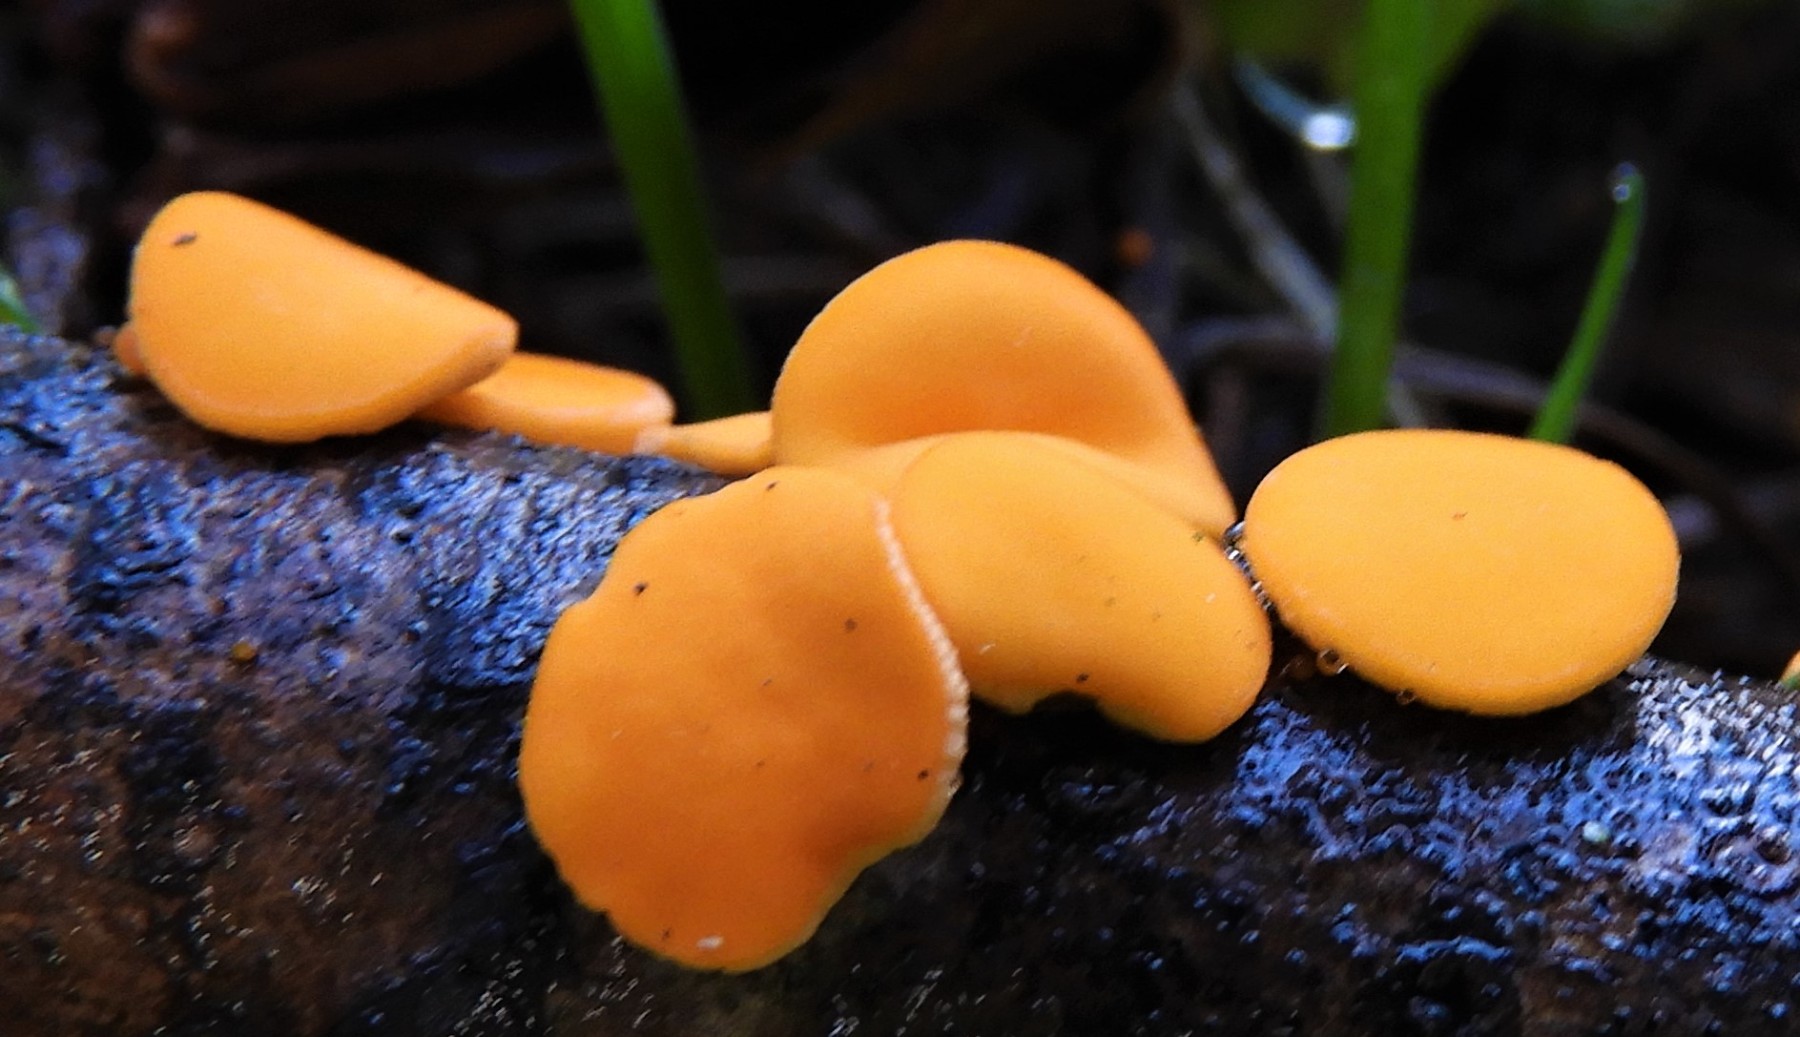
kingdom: Fungi
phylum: Ascomycota
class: Pezizomycetes
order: Pezizales
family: Sarcoscyphaceae
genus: Pithya
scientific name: Pithya vulgaris
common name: stor dukatbæger
